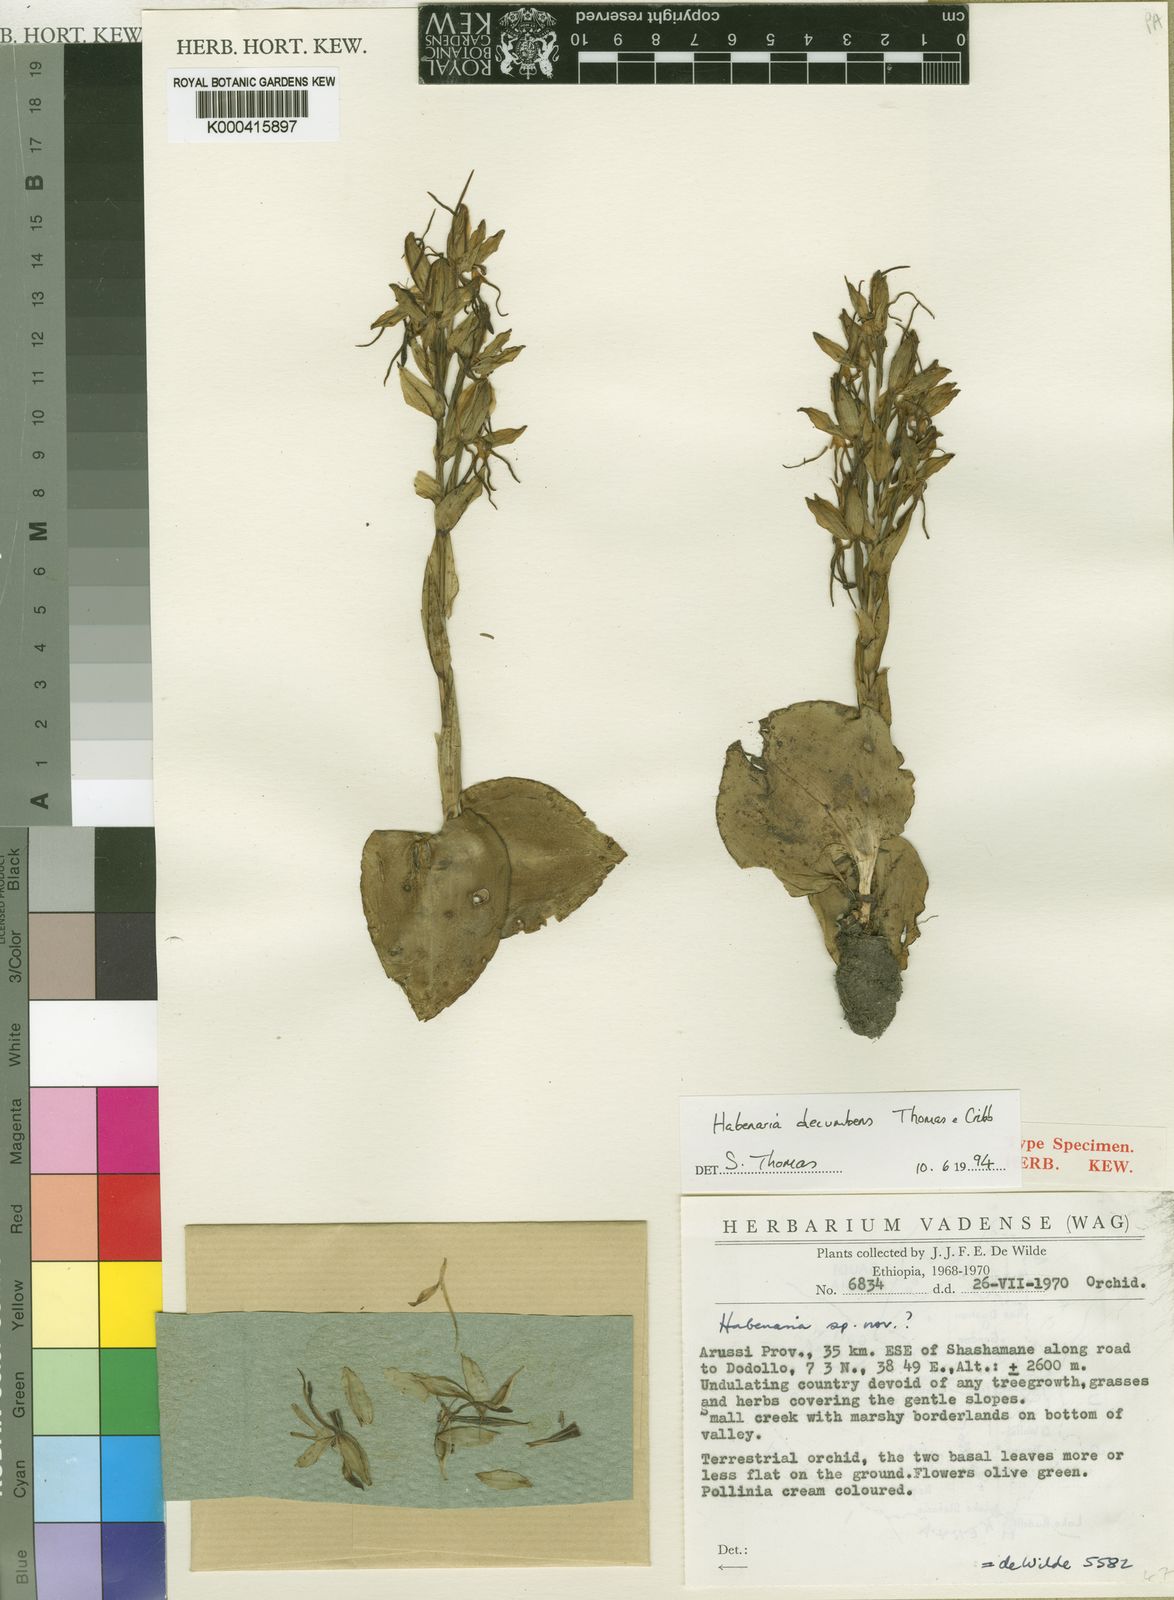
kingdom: Plantae
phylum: Tracheophyta
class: Liliopsida
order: Asparagales
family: Orchidaceae
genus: Habenaria
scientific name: Habenaria decumbens
